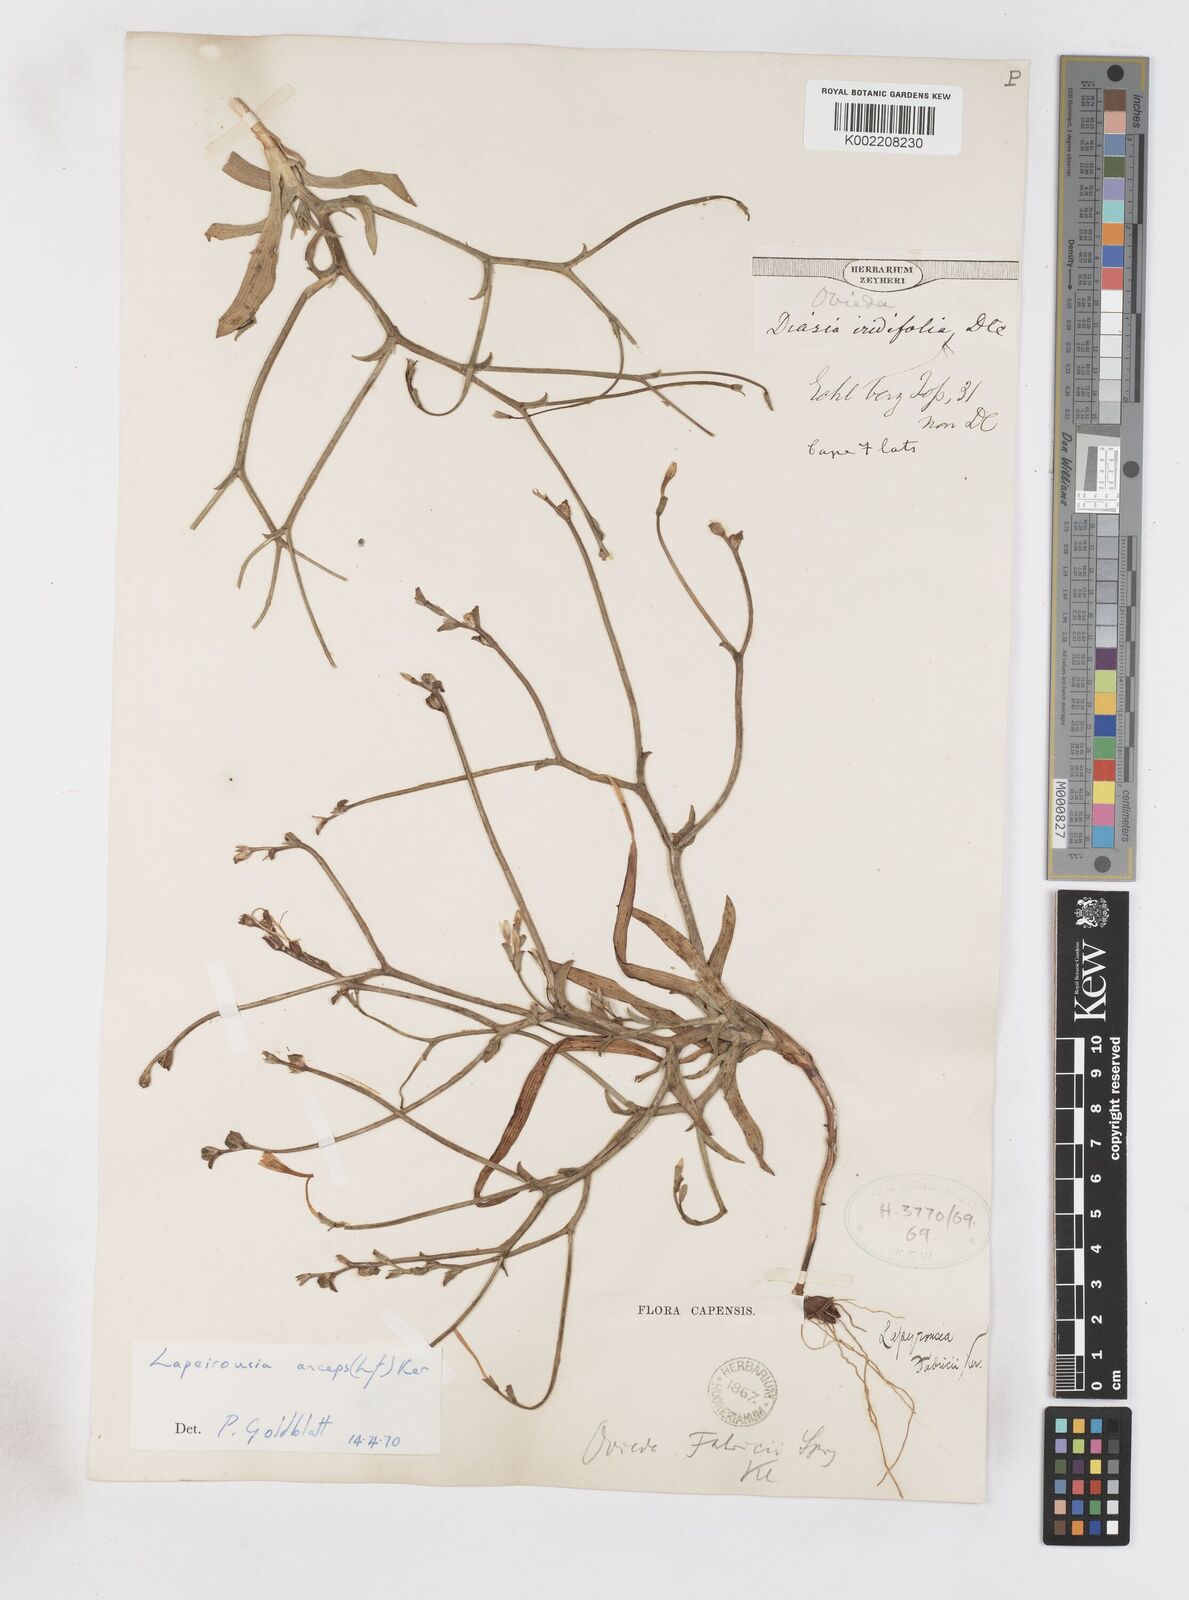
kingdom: Plantae
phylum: Tracheophyta
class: Liliopsida
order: Asparagales
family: Iridaceae
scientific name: Iridaceae
